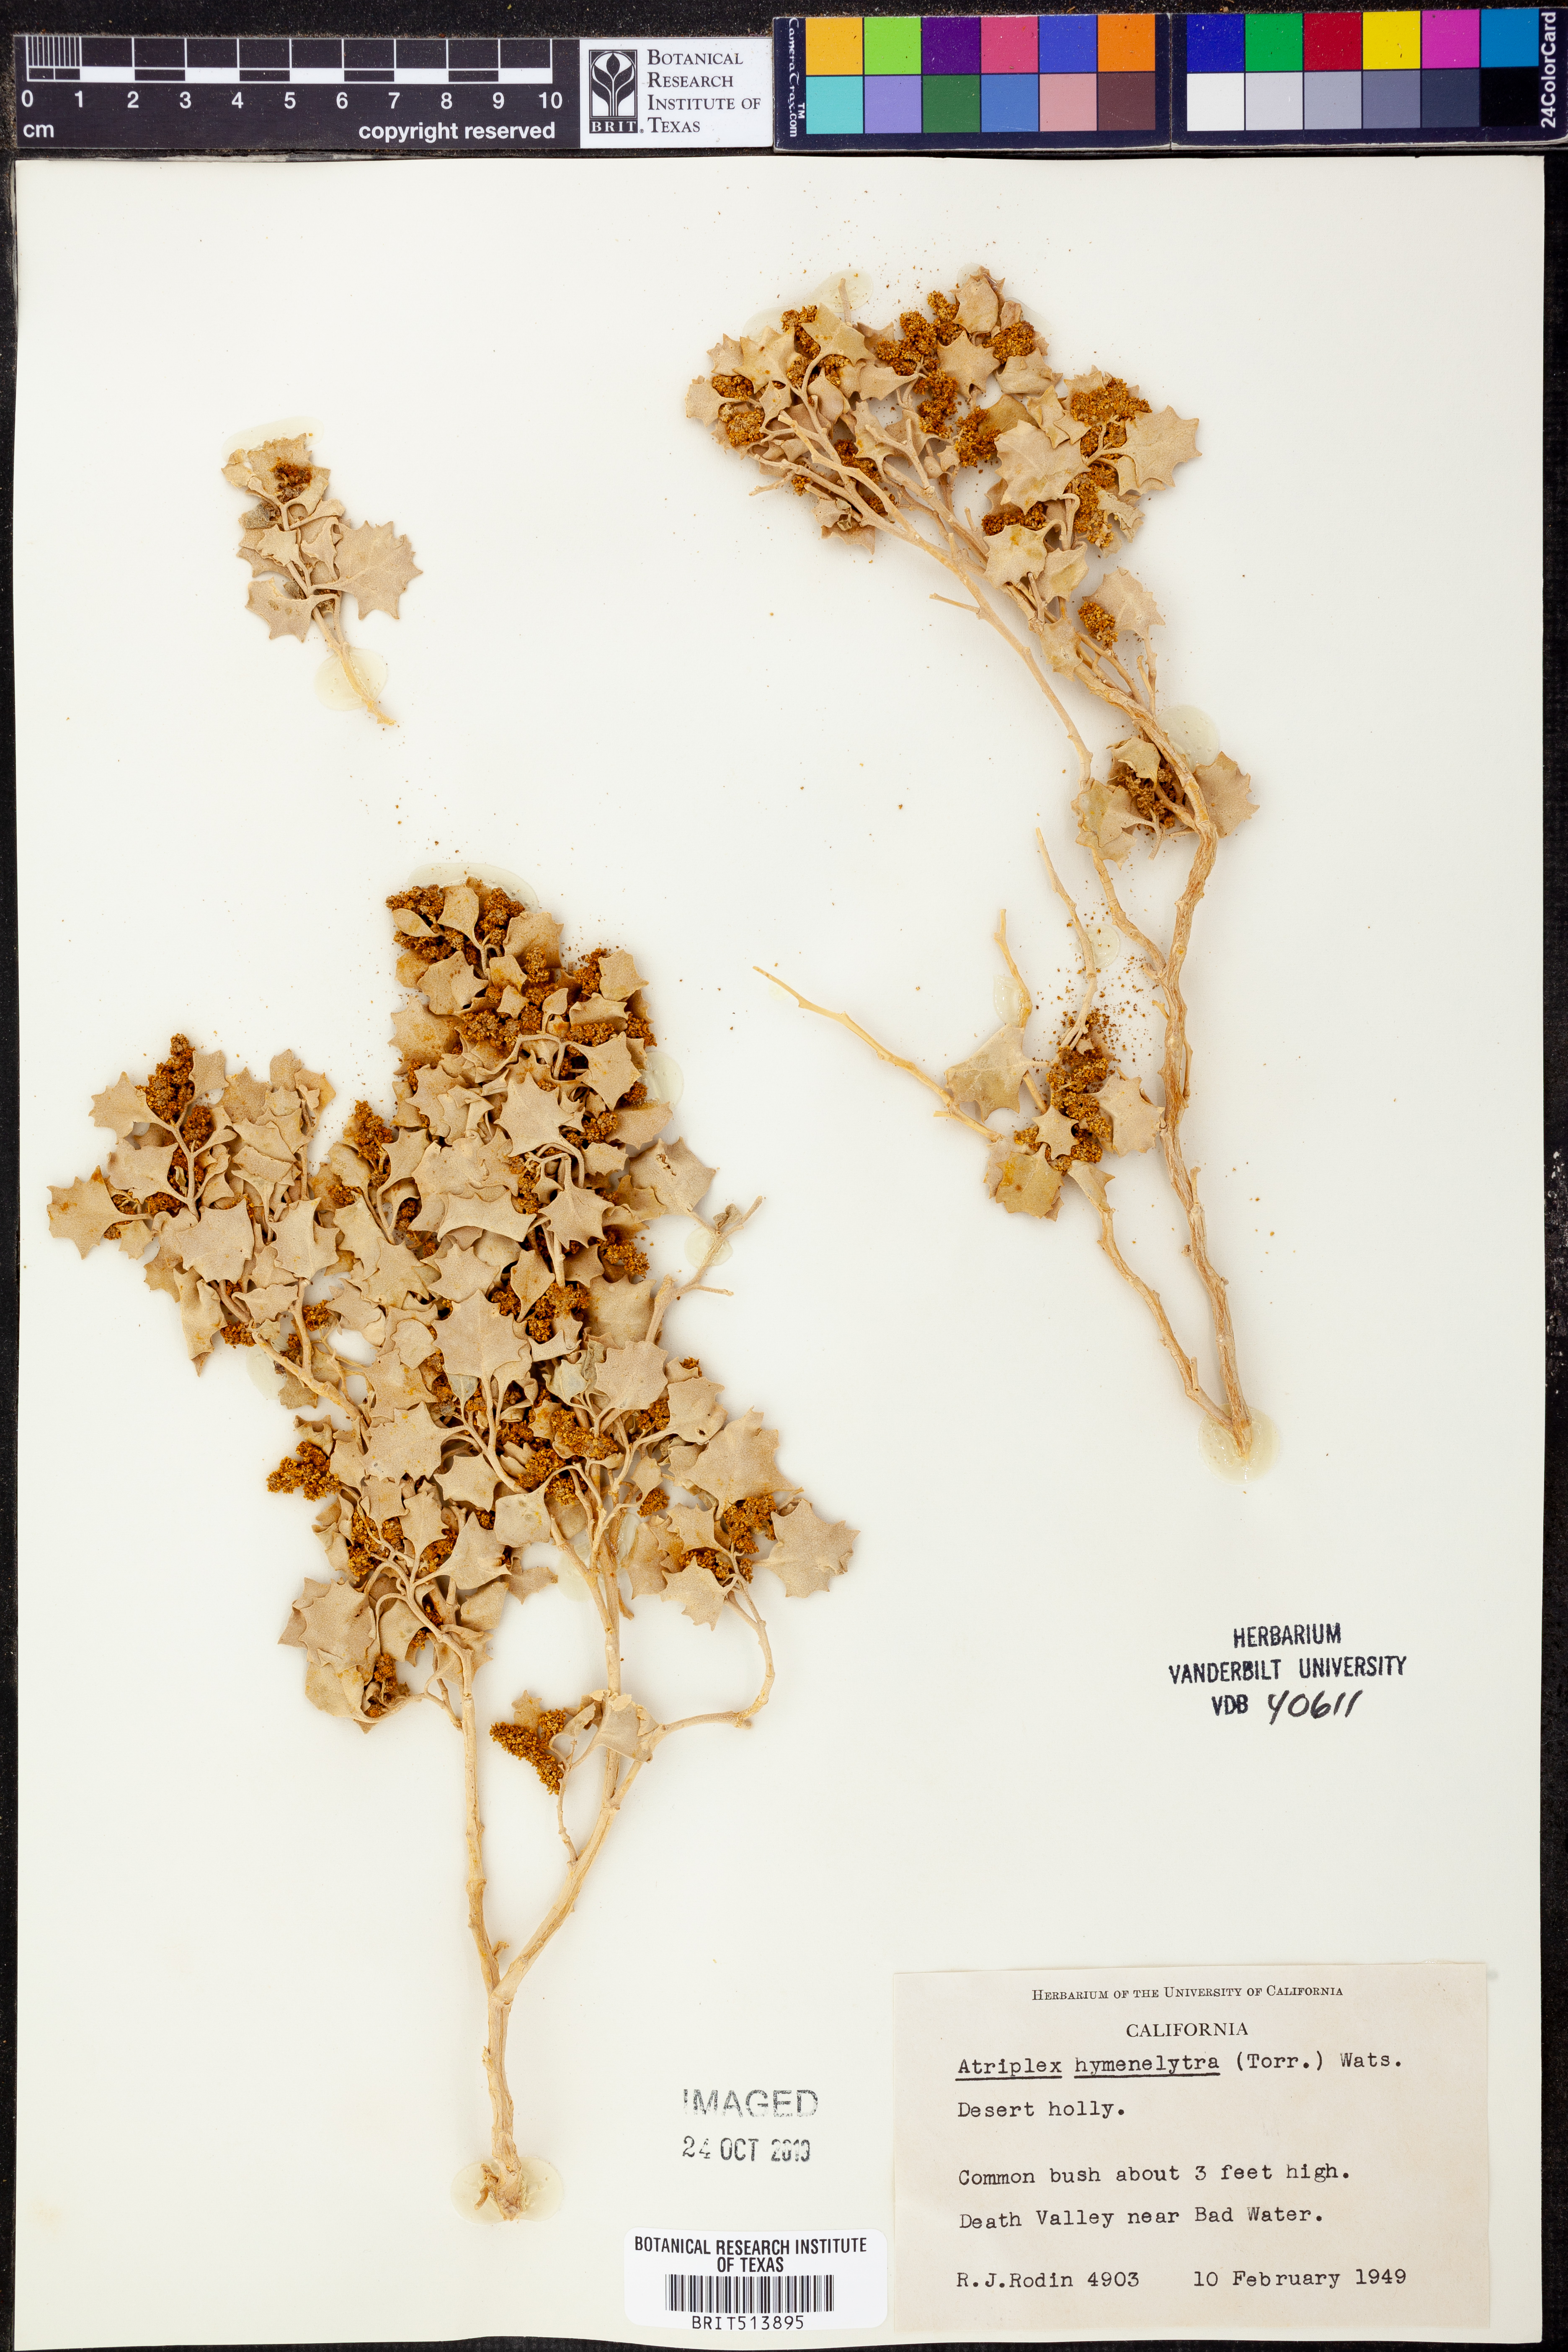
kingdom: Plantae
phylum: Tracheophyta
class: Magnoliopsida
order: Caryophyllales
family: Amaranthaceae
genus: Atriplex
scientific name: Atriplex hymenelytra
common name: Desert-holly
